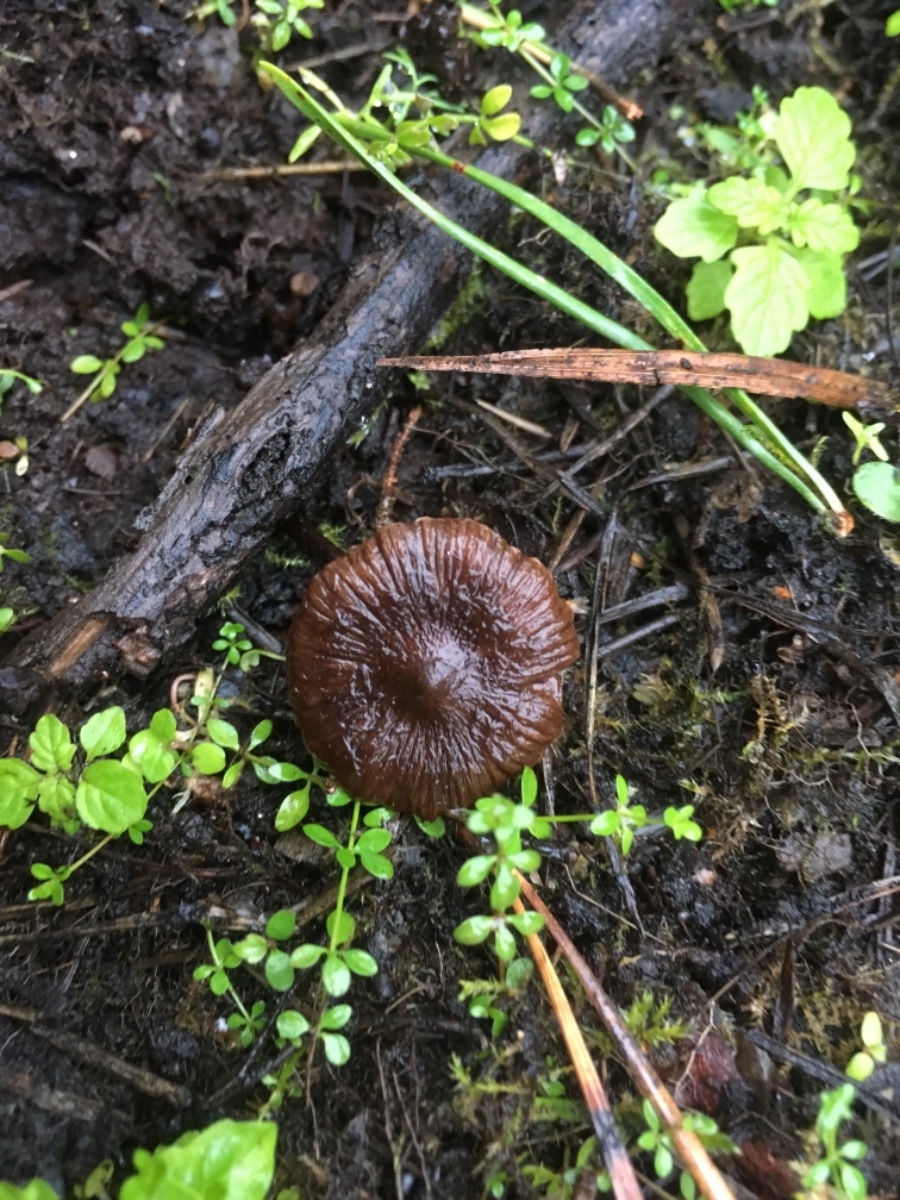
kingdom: Fungi
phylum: Basidiomycota
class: Agaricomycetes
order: Agaricales
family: Inocybaceae
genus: Inocybe
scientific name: Inocybe
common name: trævlhat
